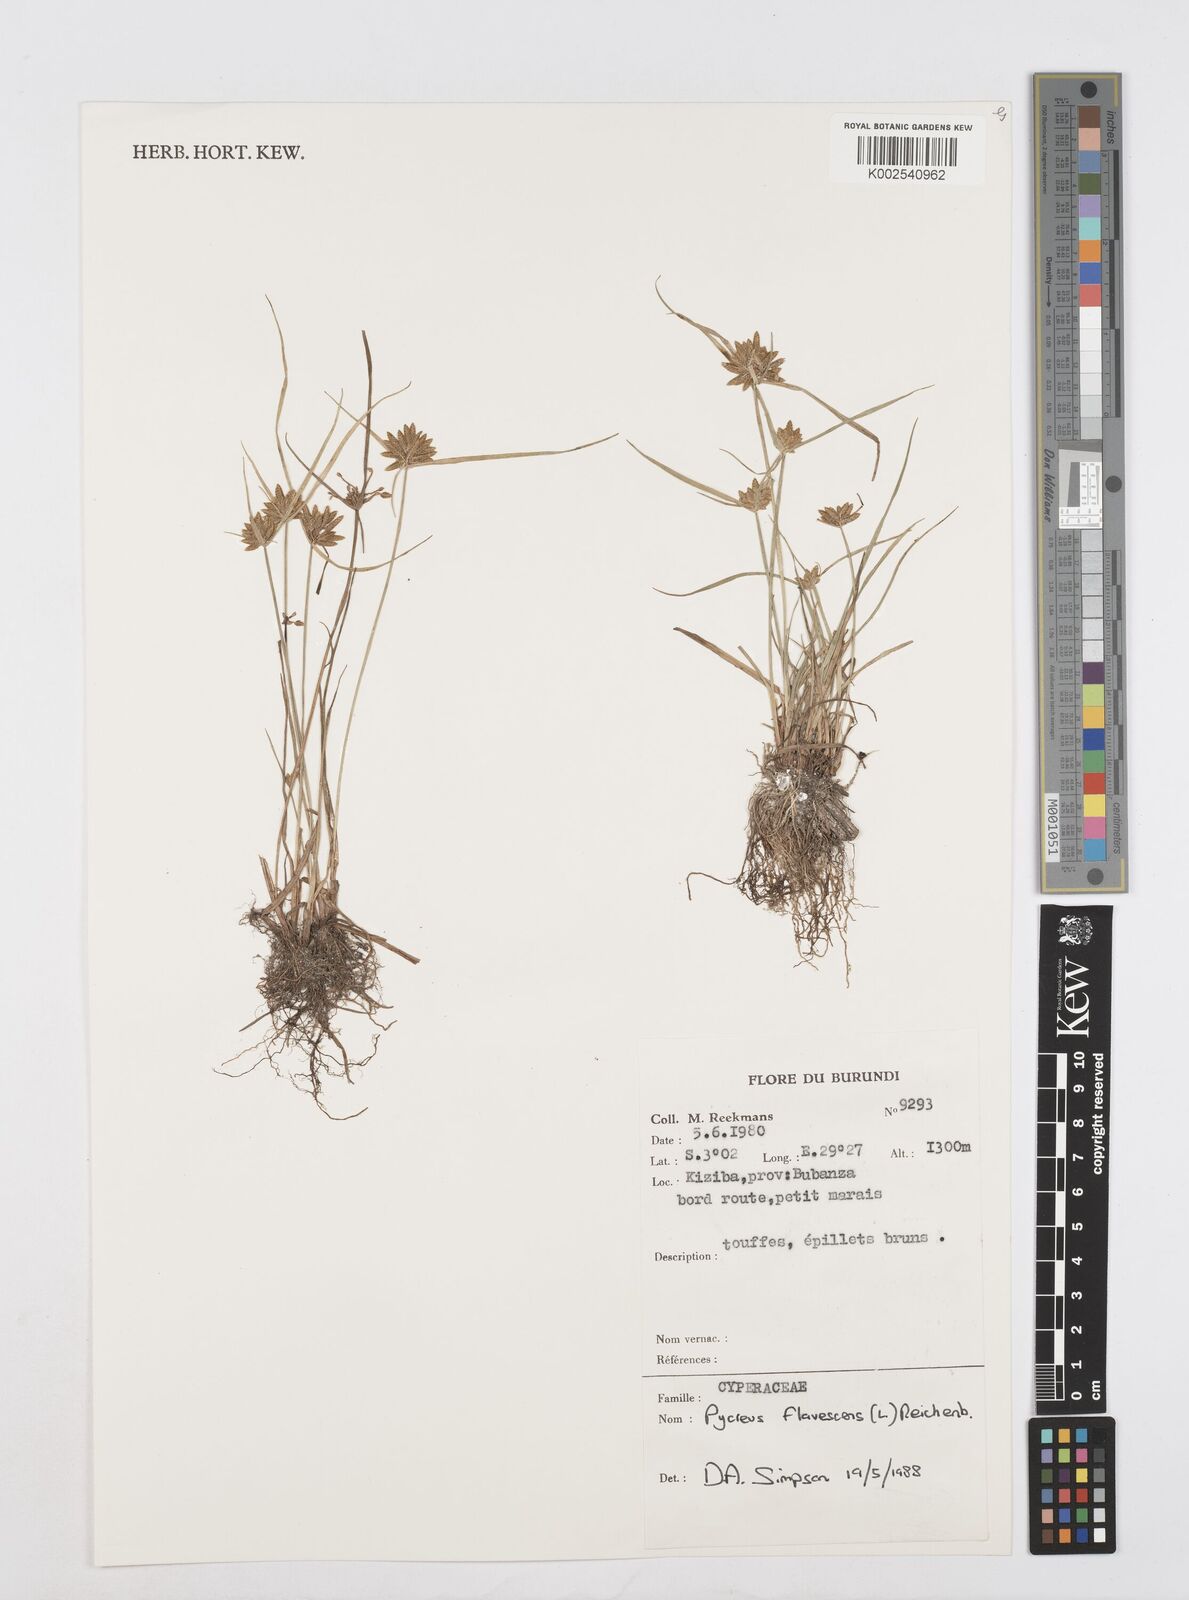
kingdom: Plantae
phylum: Tracheophyta
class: Liliopsida
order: Poales
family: Cyperaceae
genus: Cyperus
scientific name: Cyperus flavescens
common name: Yellow galingale
